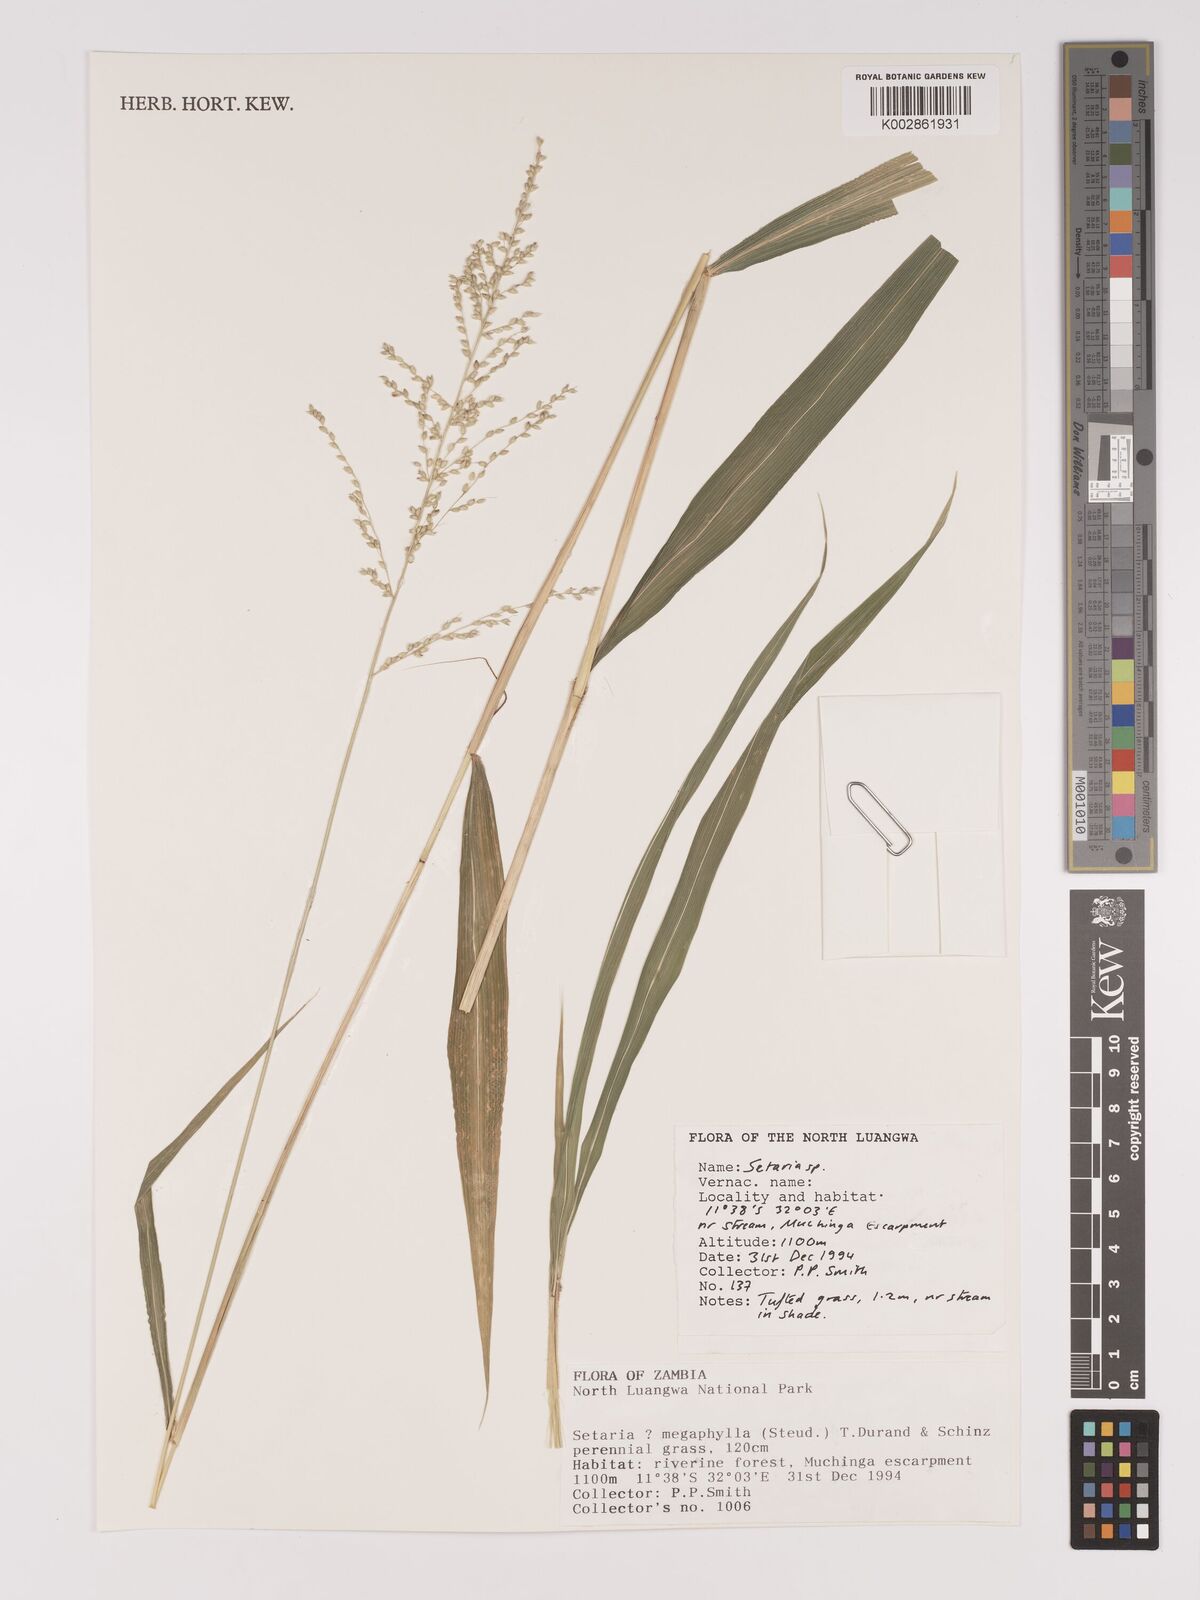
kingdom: Plantae
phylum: Tracheophyta
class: Liliopsida
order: Poales
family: Poaceae
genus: Setaria
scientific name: Setaria
